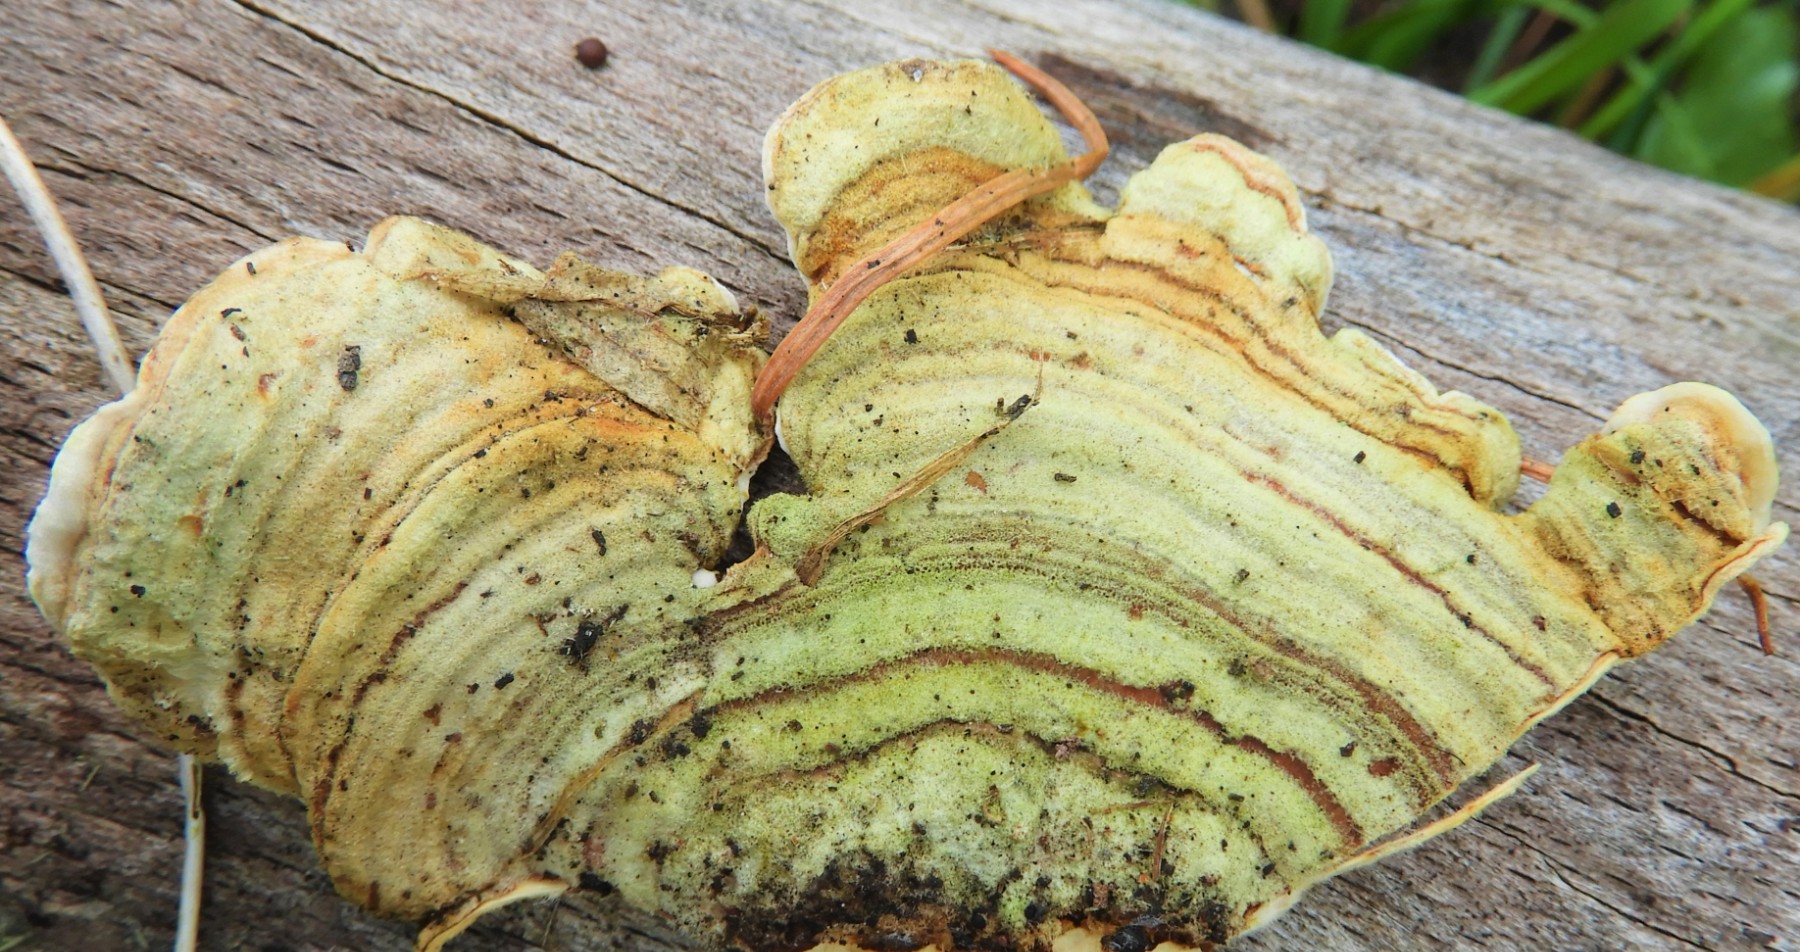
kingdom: Fungi
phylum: Basidiomycota
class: Agaricomycetes
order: Russulales
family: Stereaceae
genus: Stereum
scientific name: Stereum subtomentosum
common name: smuk lædersvamp
